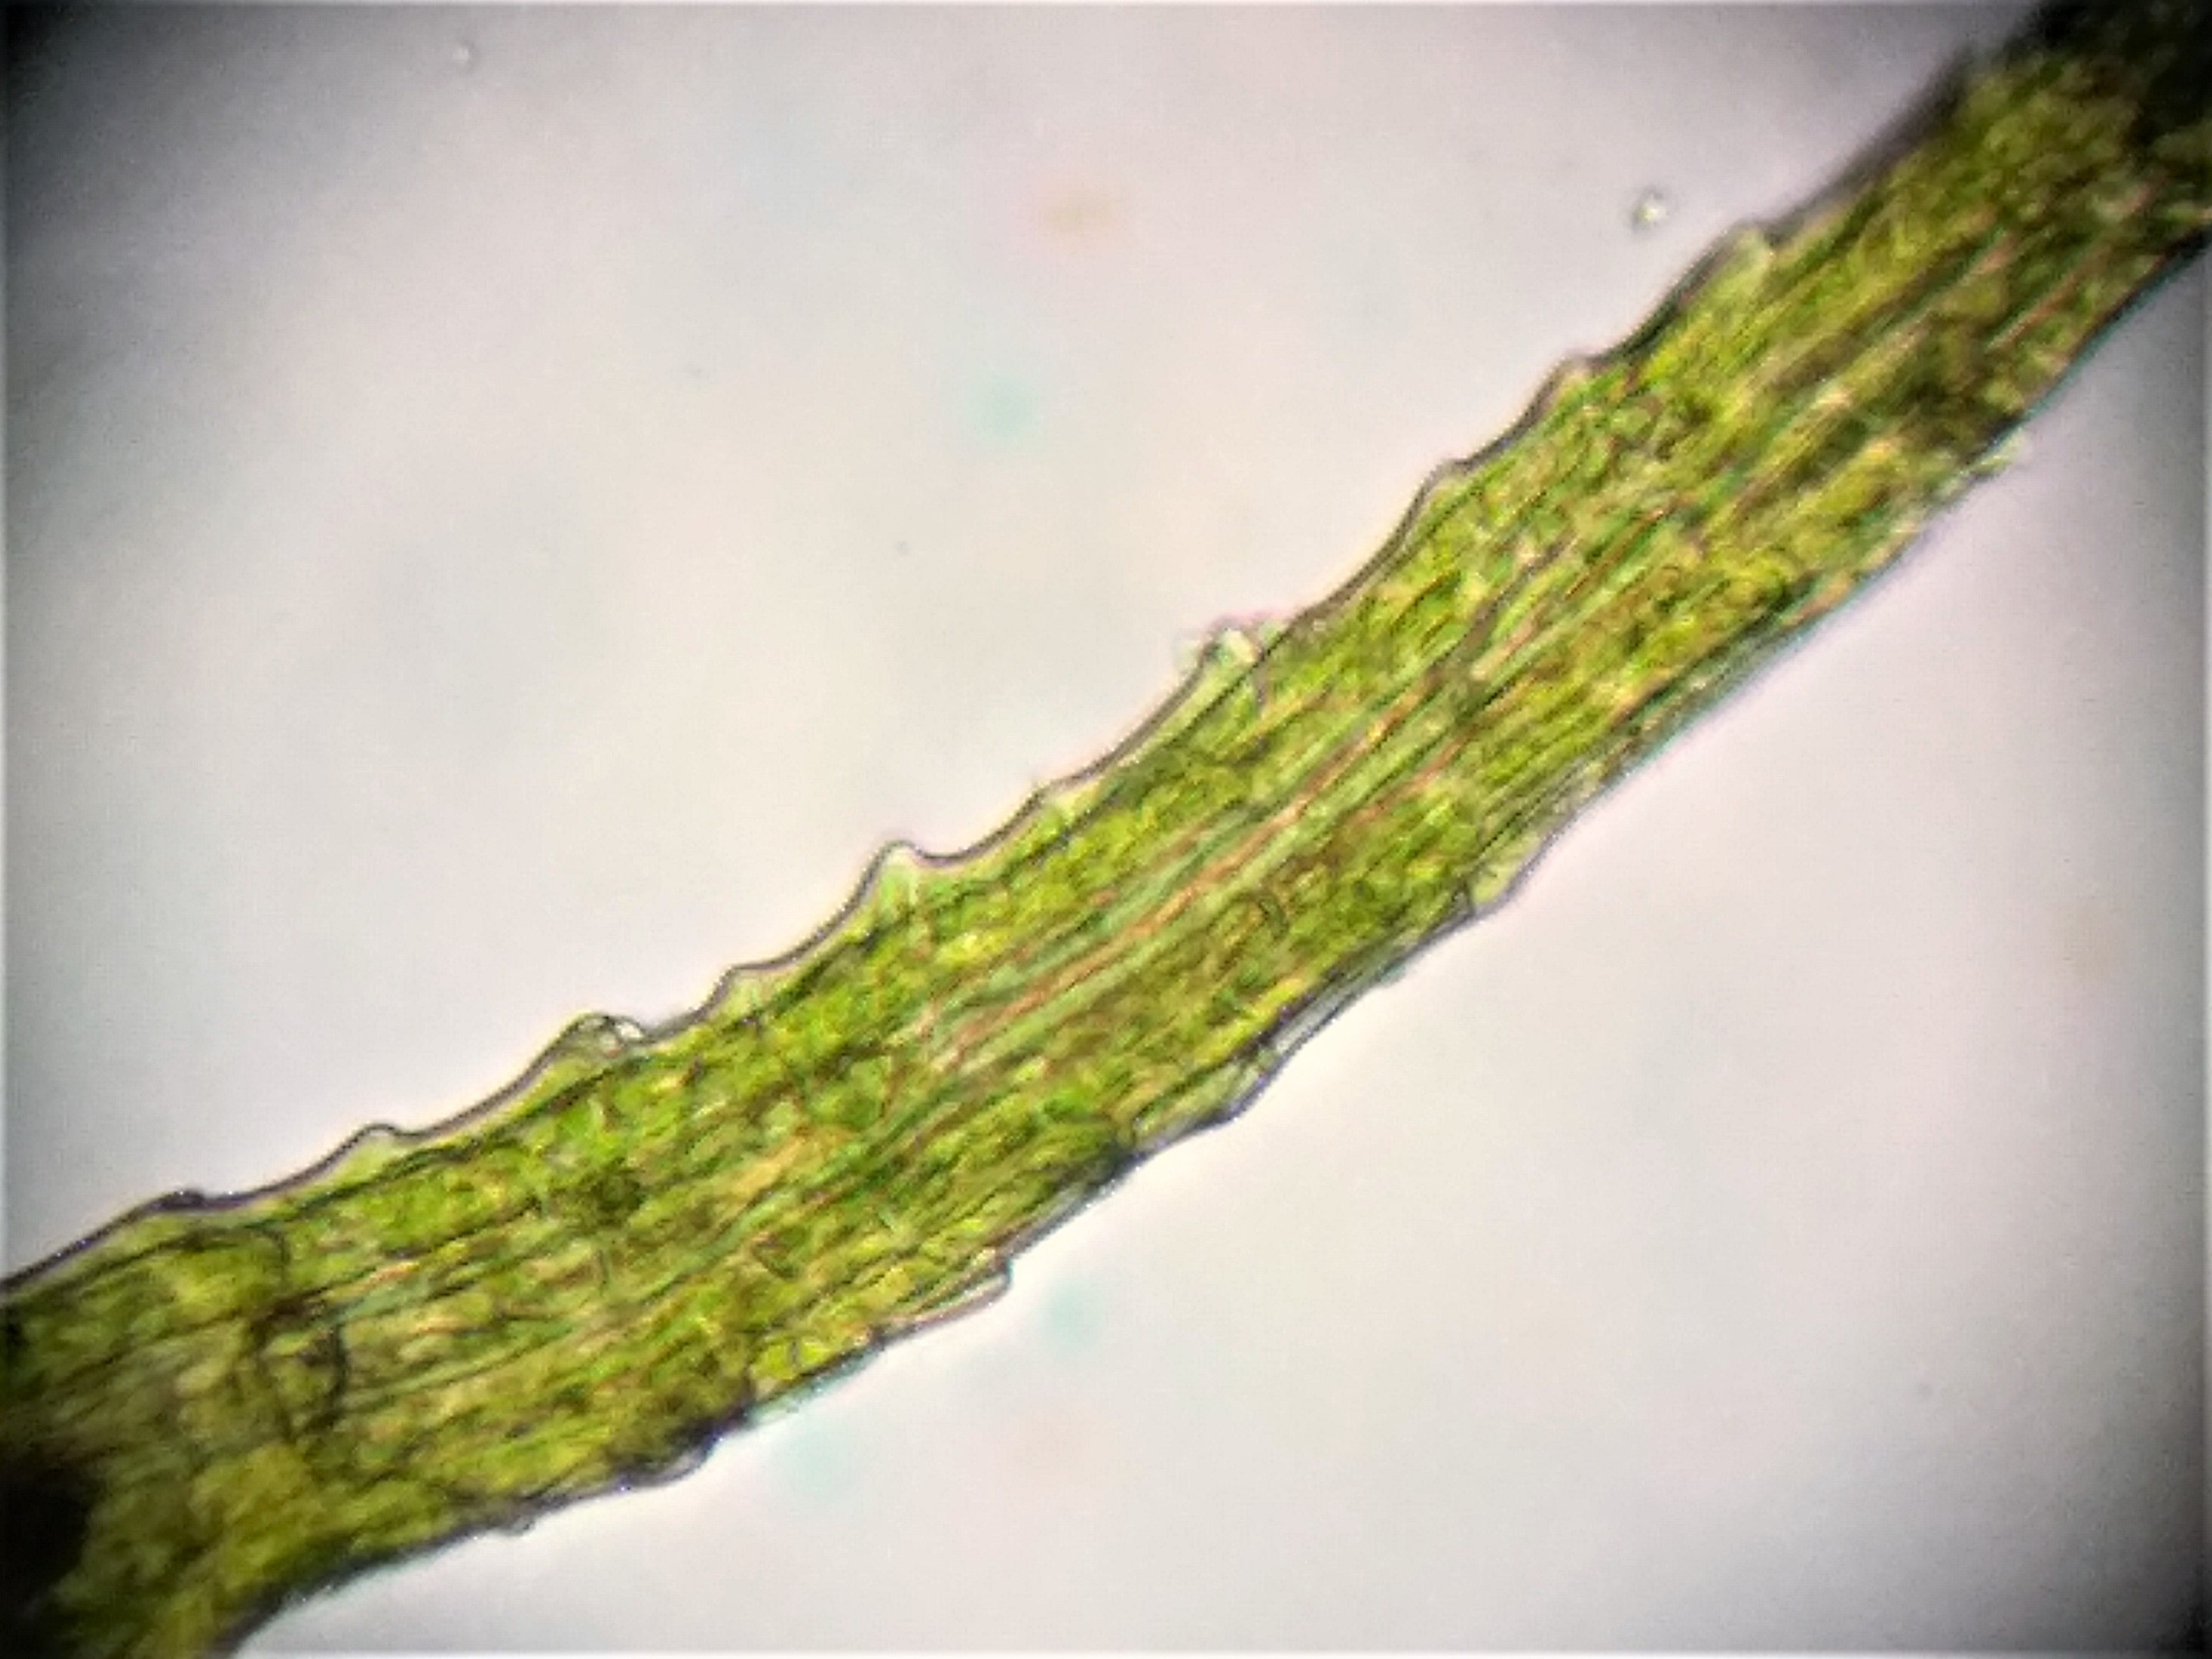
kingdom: Plantae
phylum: Bryophyta
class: Bryopsida
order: Dicranales
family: Ditrichaceae
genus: Trichodon
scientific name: Trichodon cylindricus
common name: Udspærret hårtand
